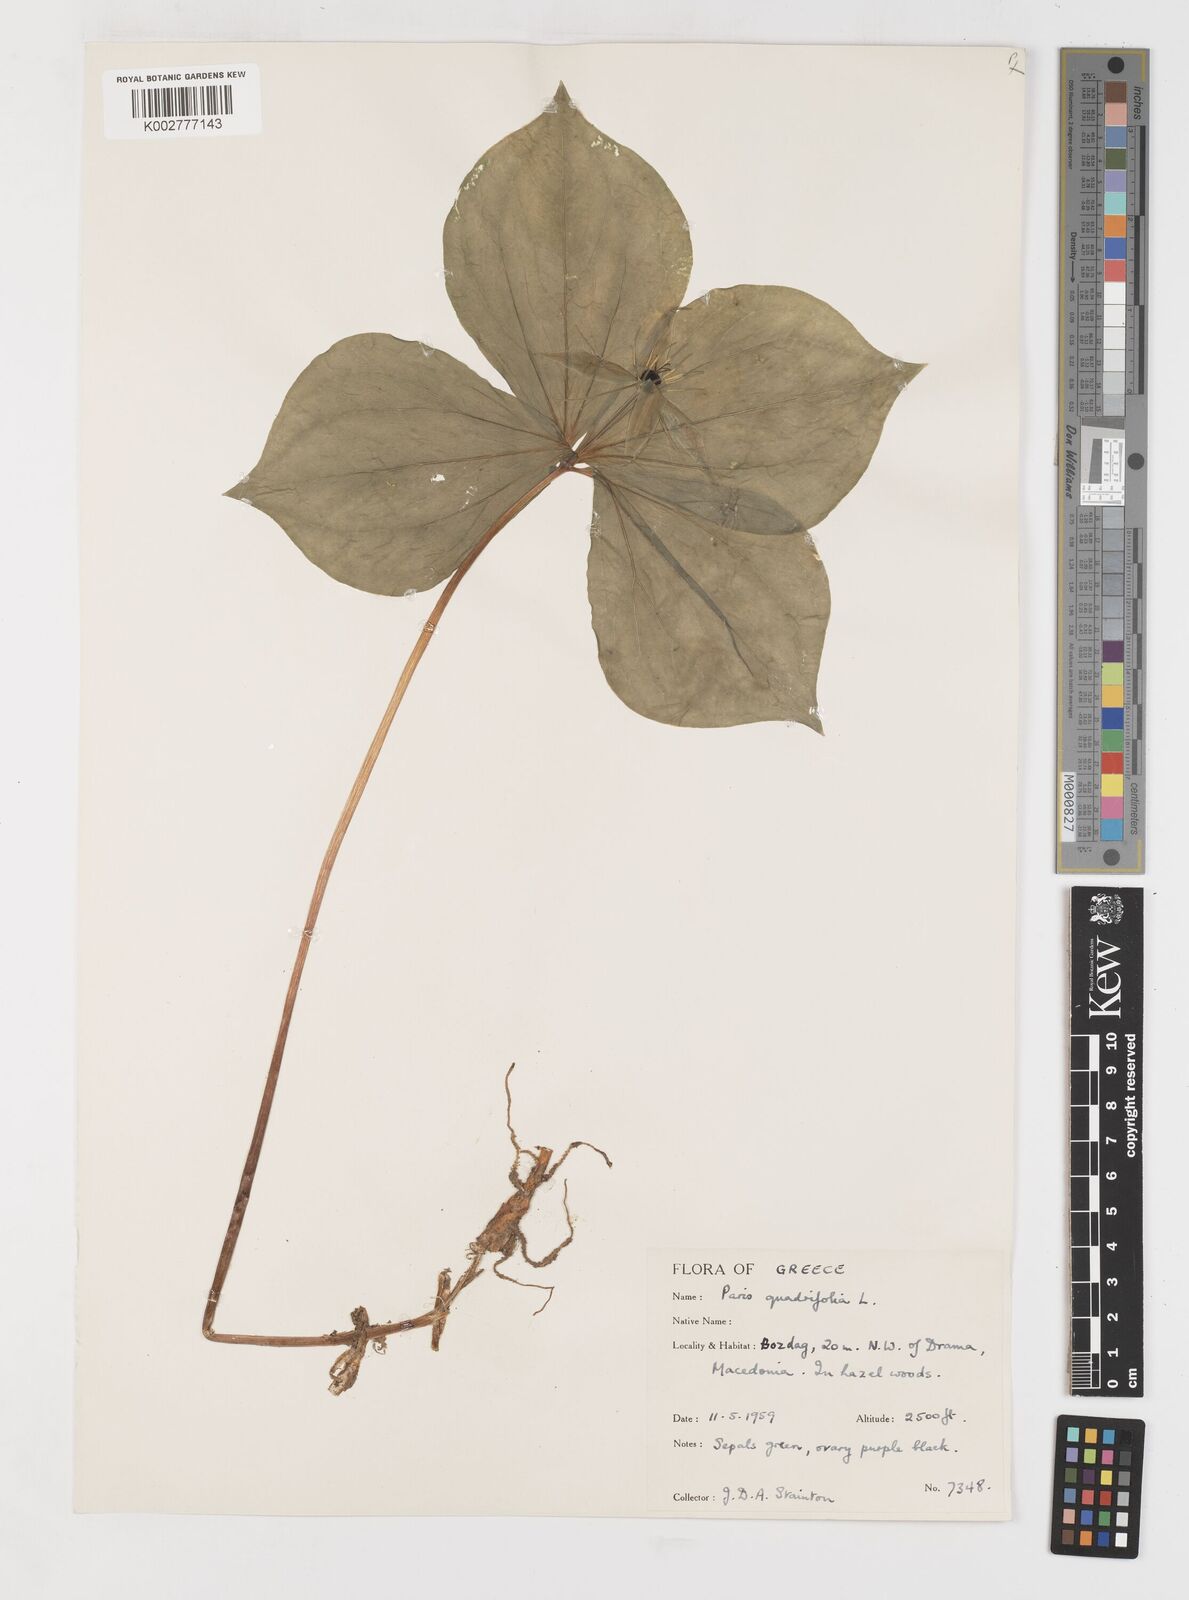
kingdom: Plantae
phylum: Tracheophyta
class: Liliopsida
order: Liliales
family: Melanthiaceae
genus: Paris
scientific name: Paris quadrifolia
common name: Herb-paris
